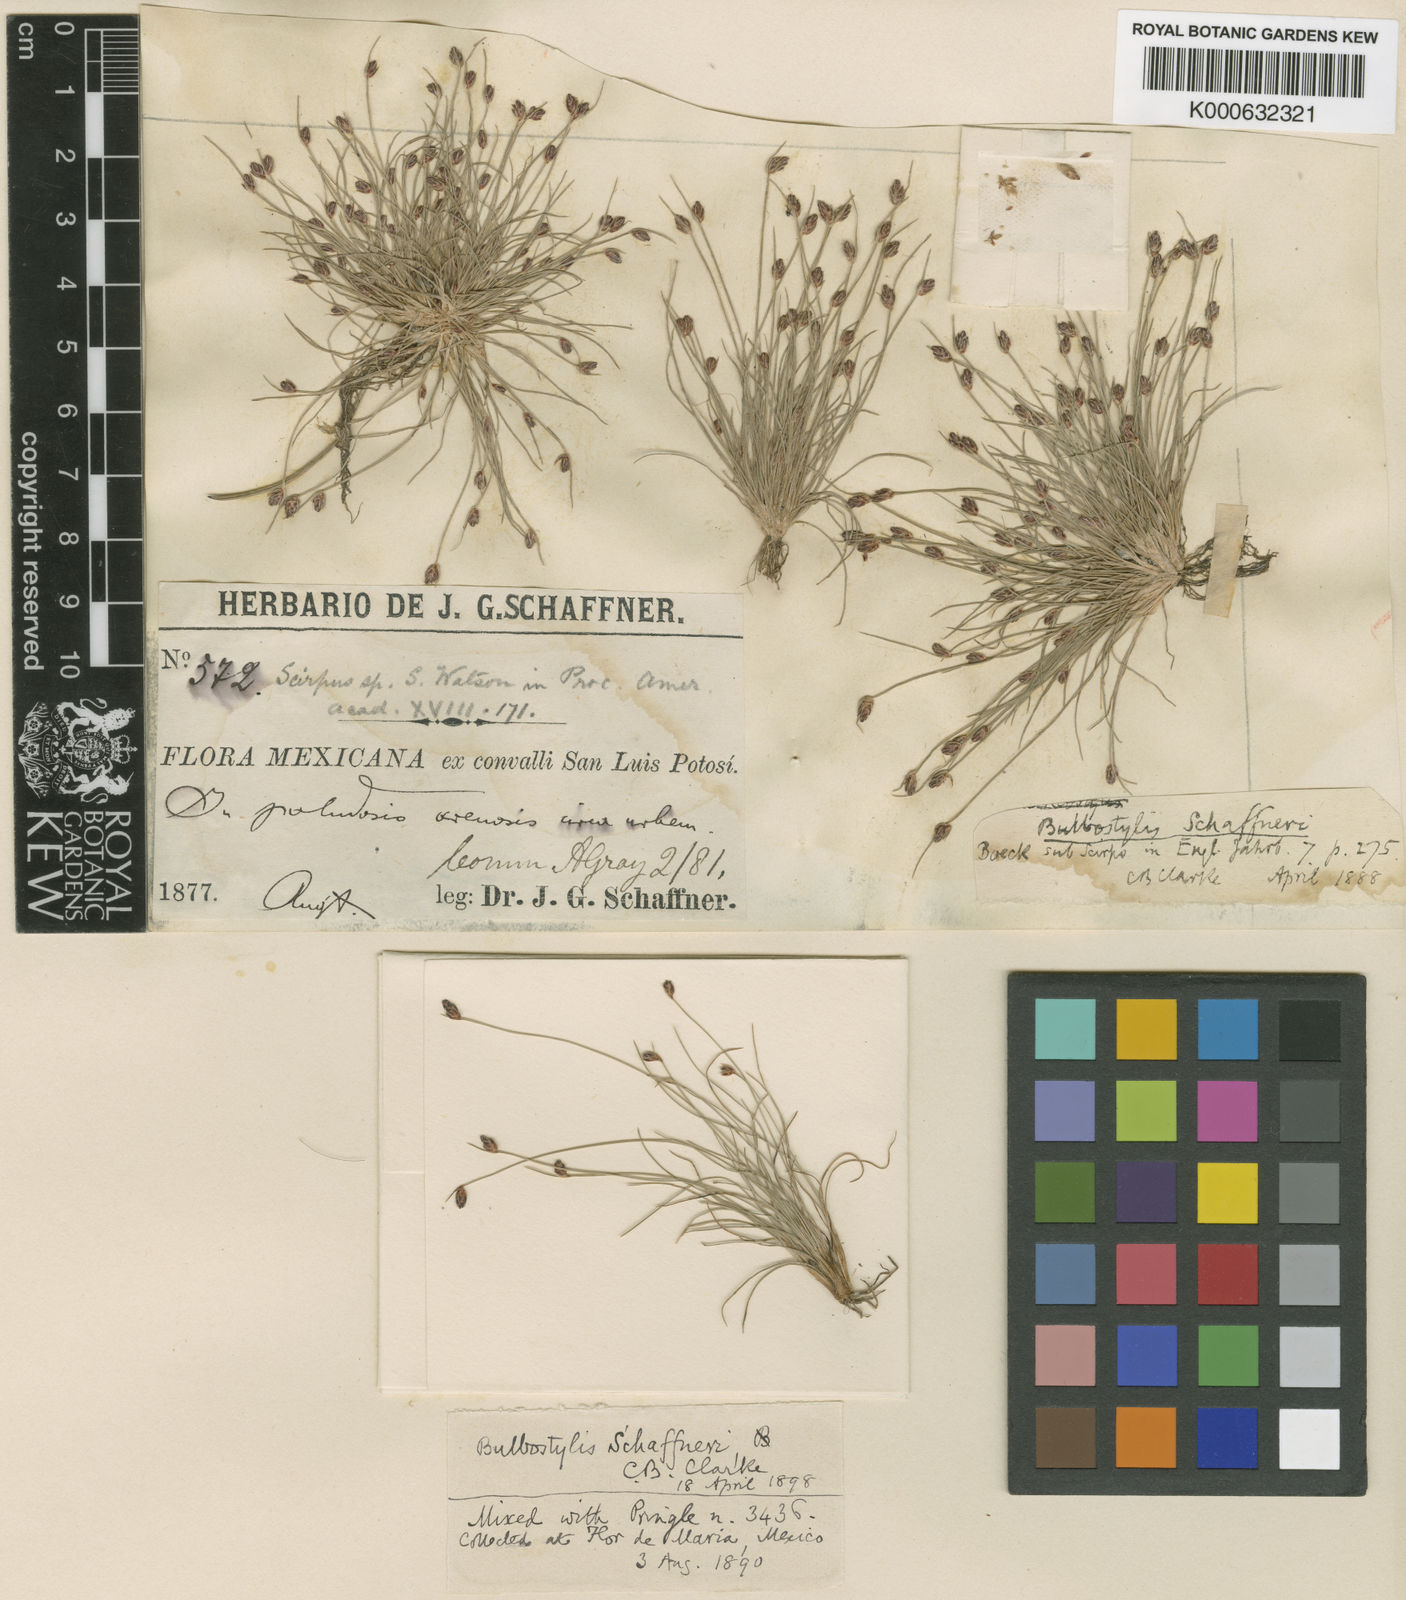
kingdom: Plantae
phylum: Tracheophyta
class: Liliopsida
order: Poales
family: Cyperaceae
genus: Bulbostylis
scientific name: Bulbostylis schaffneri
